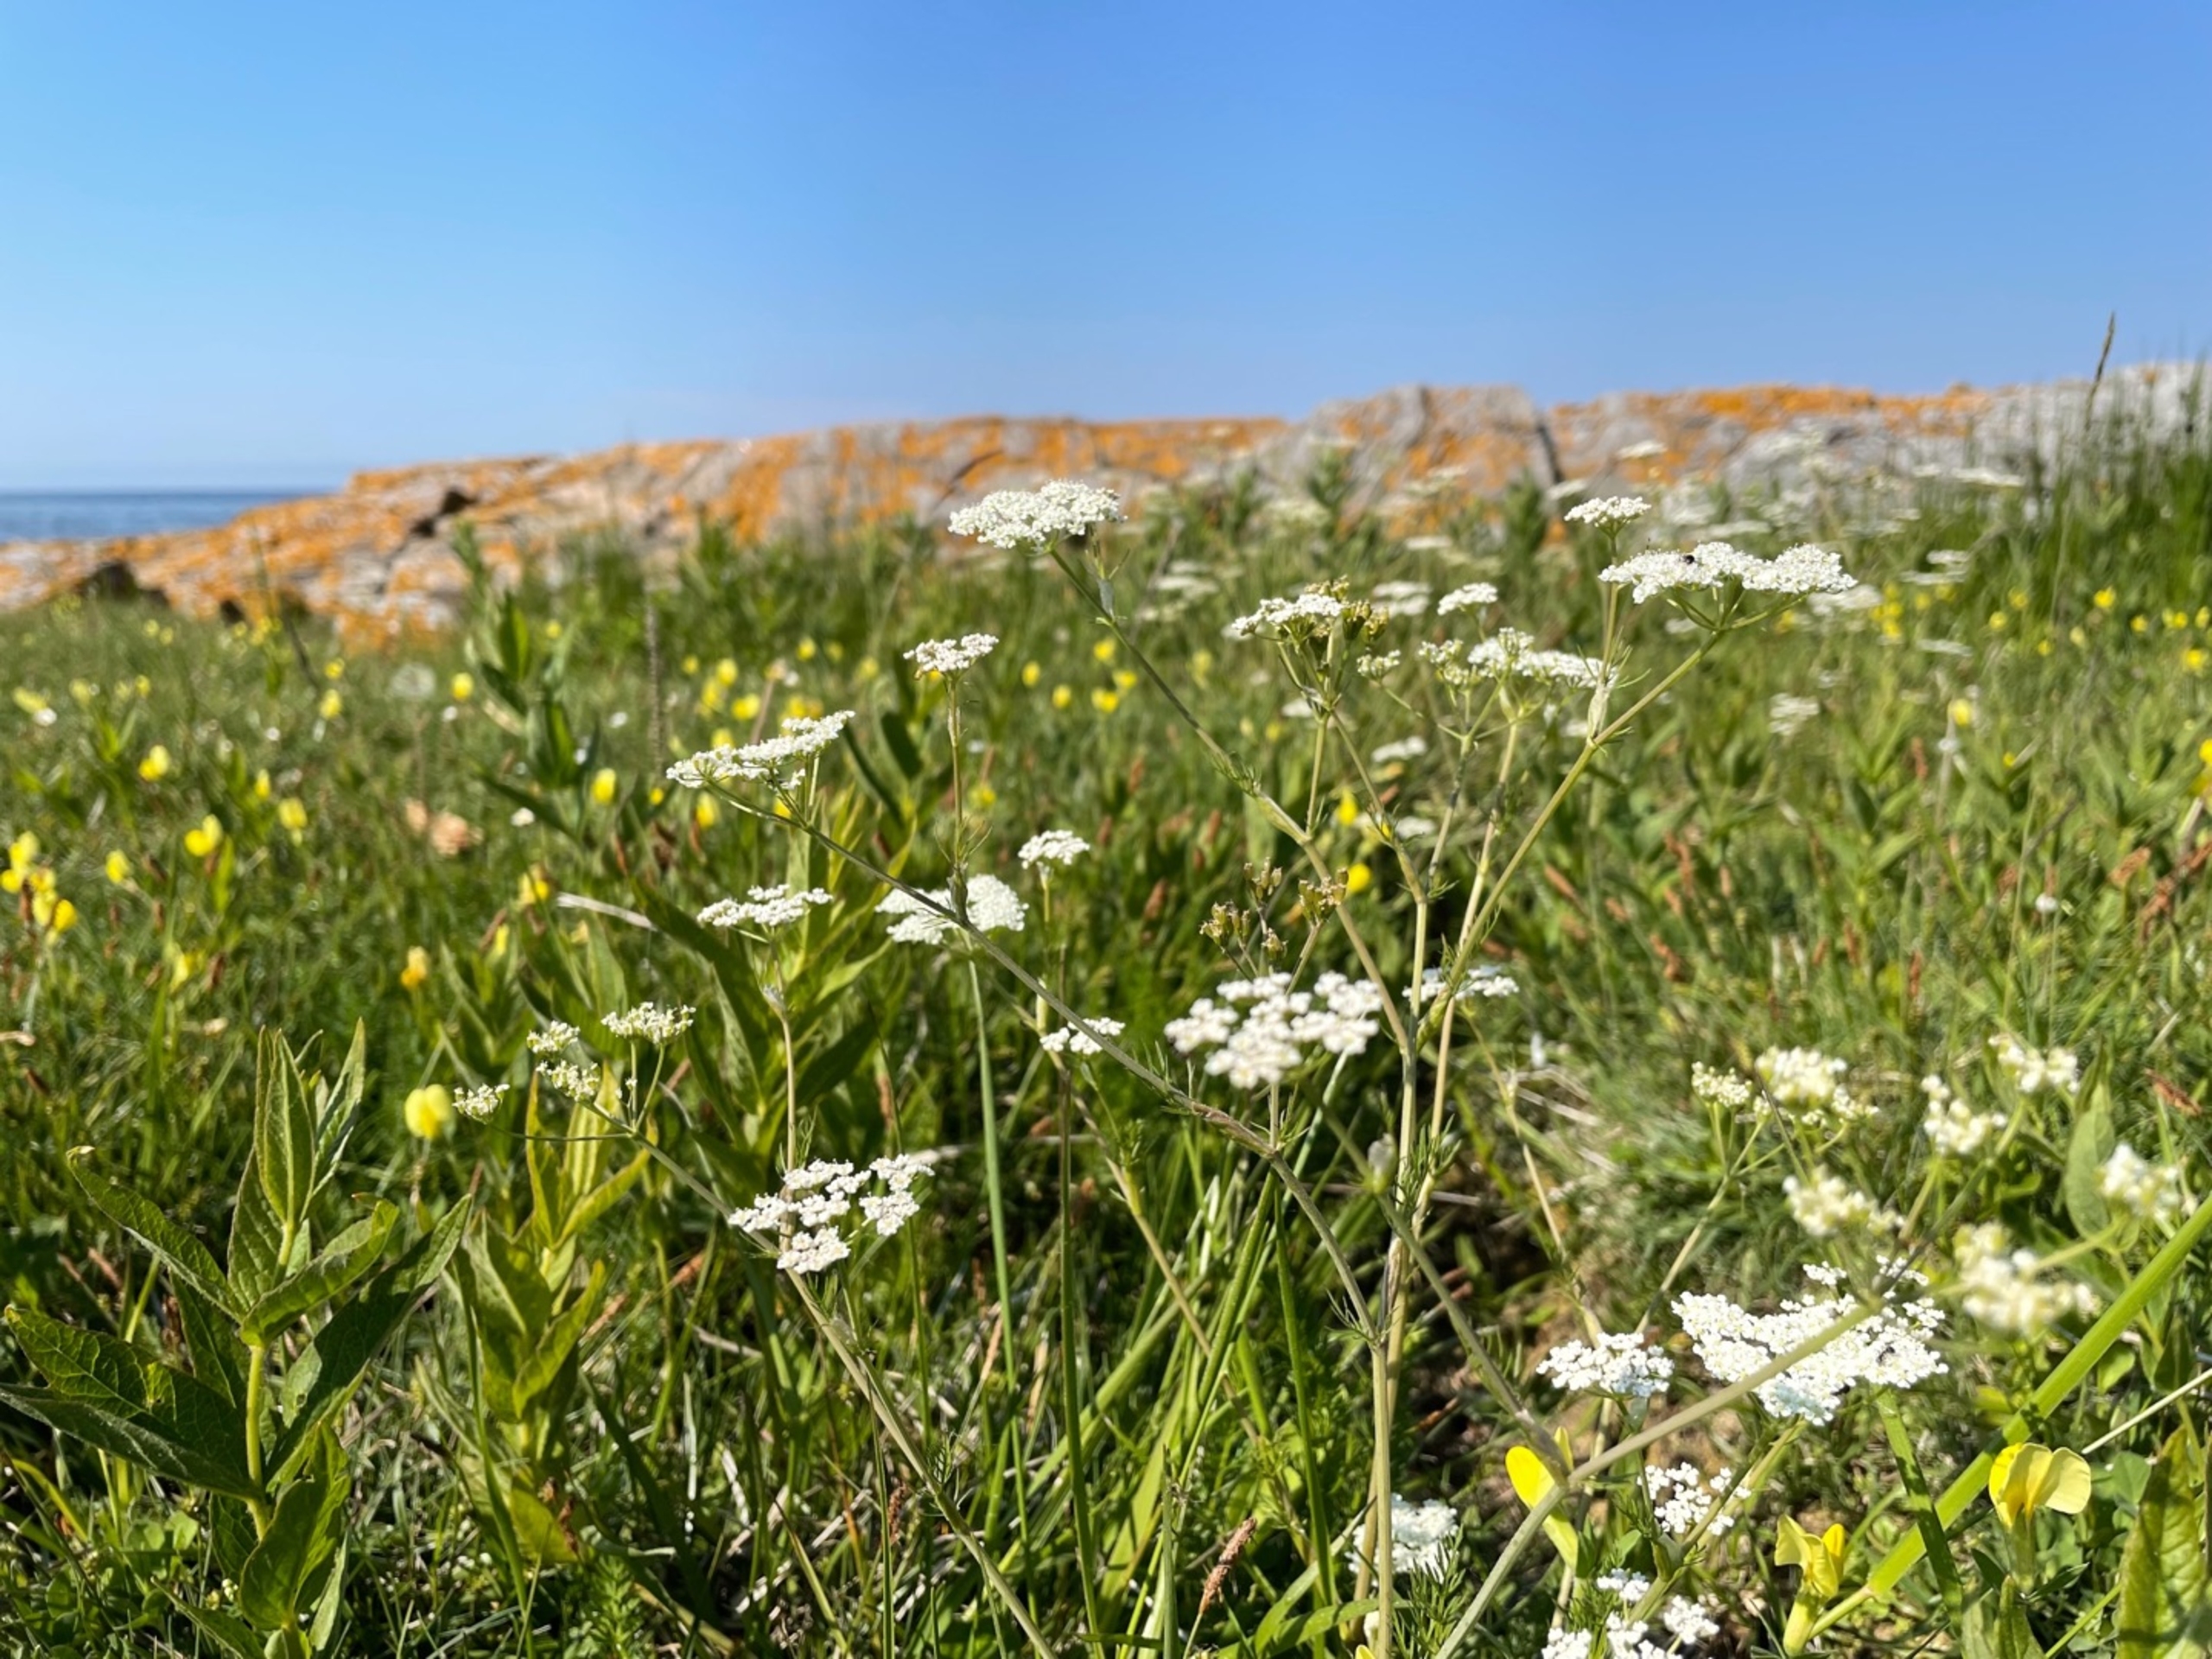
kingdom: Plantae
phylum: Tracheophyta
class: Magnoliopsida
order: Apiales
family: Apiaceae
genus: Carum
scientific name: Carum carvi
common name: Kommen
